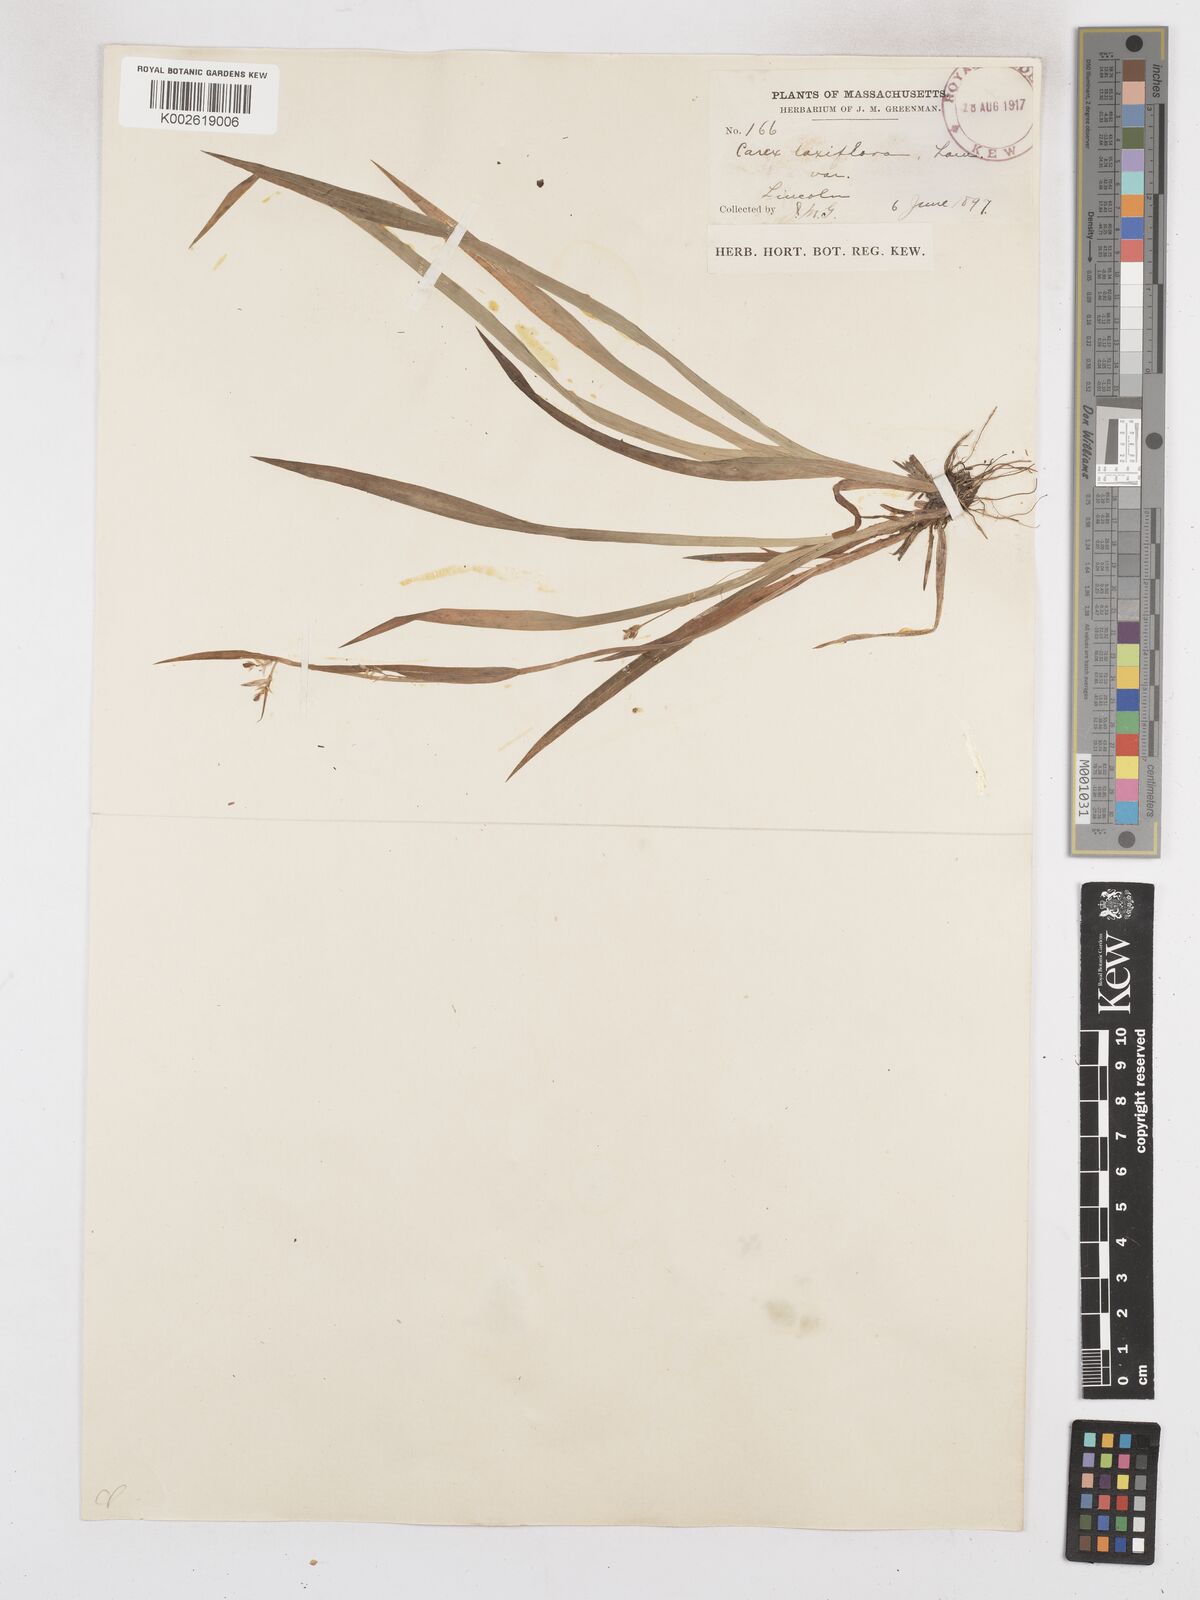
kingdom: Plantae
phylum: Tracheophyta
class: Liliopsida
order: Poales
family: Cyperaceae
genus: Carex
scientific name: Carex leptonervia
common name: Few-nerved wood sedge
